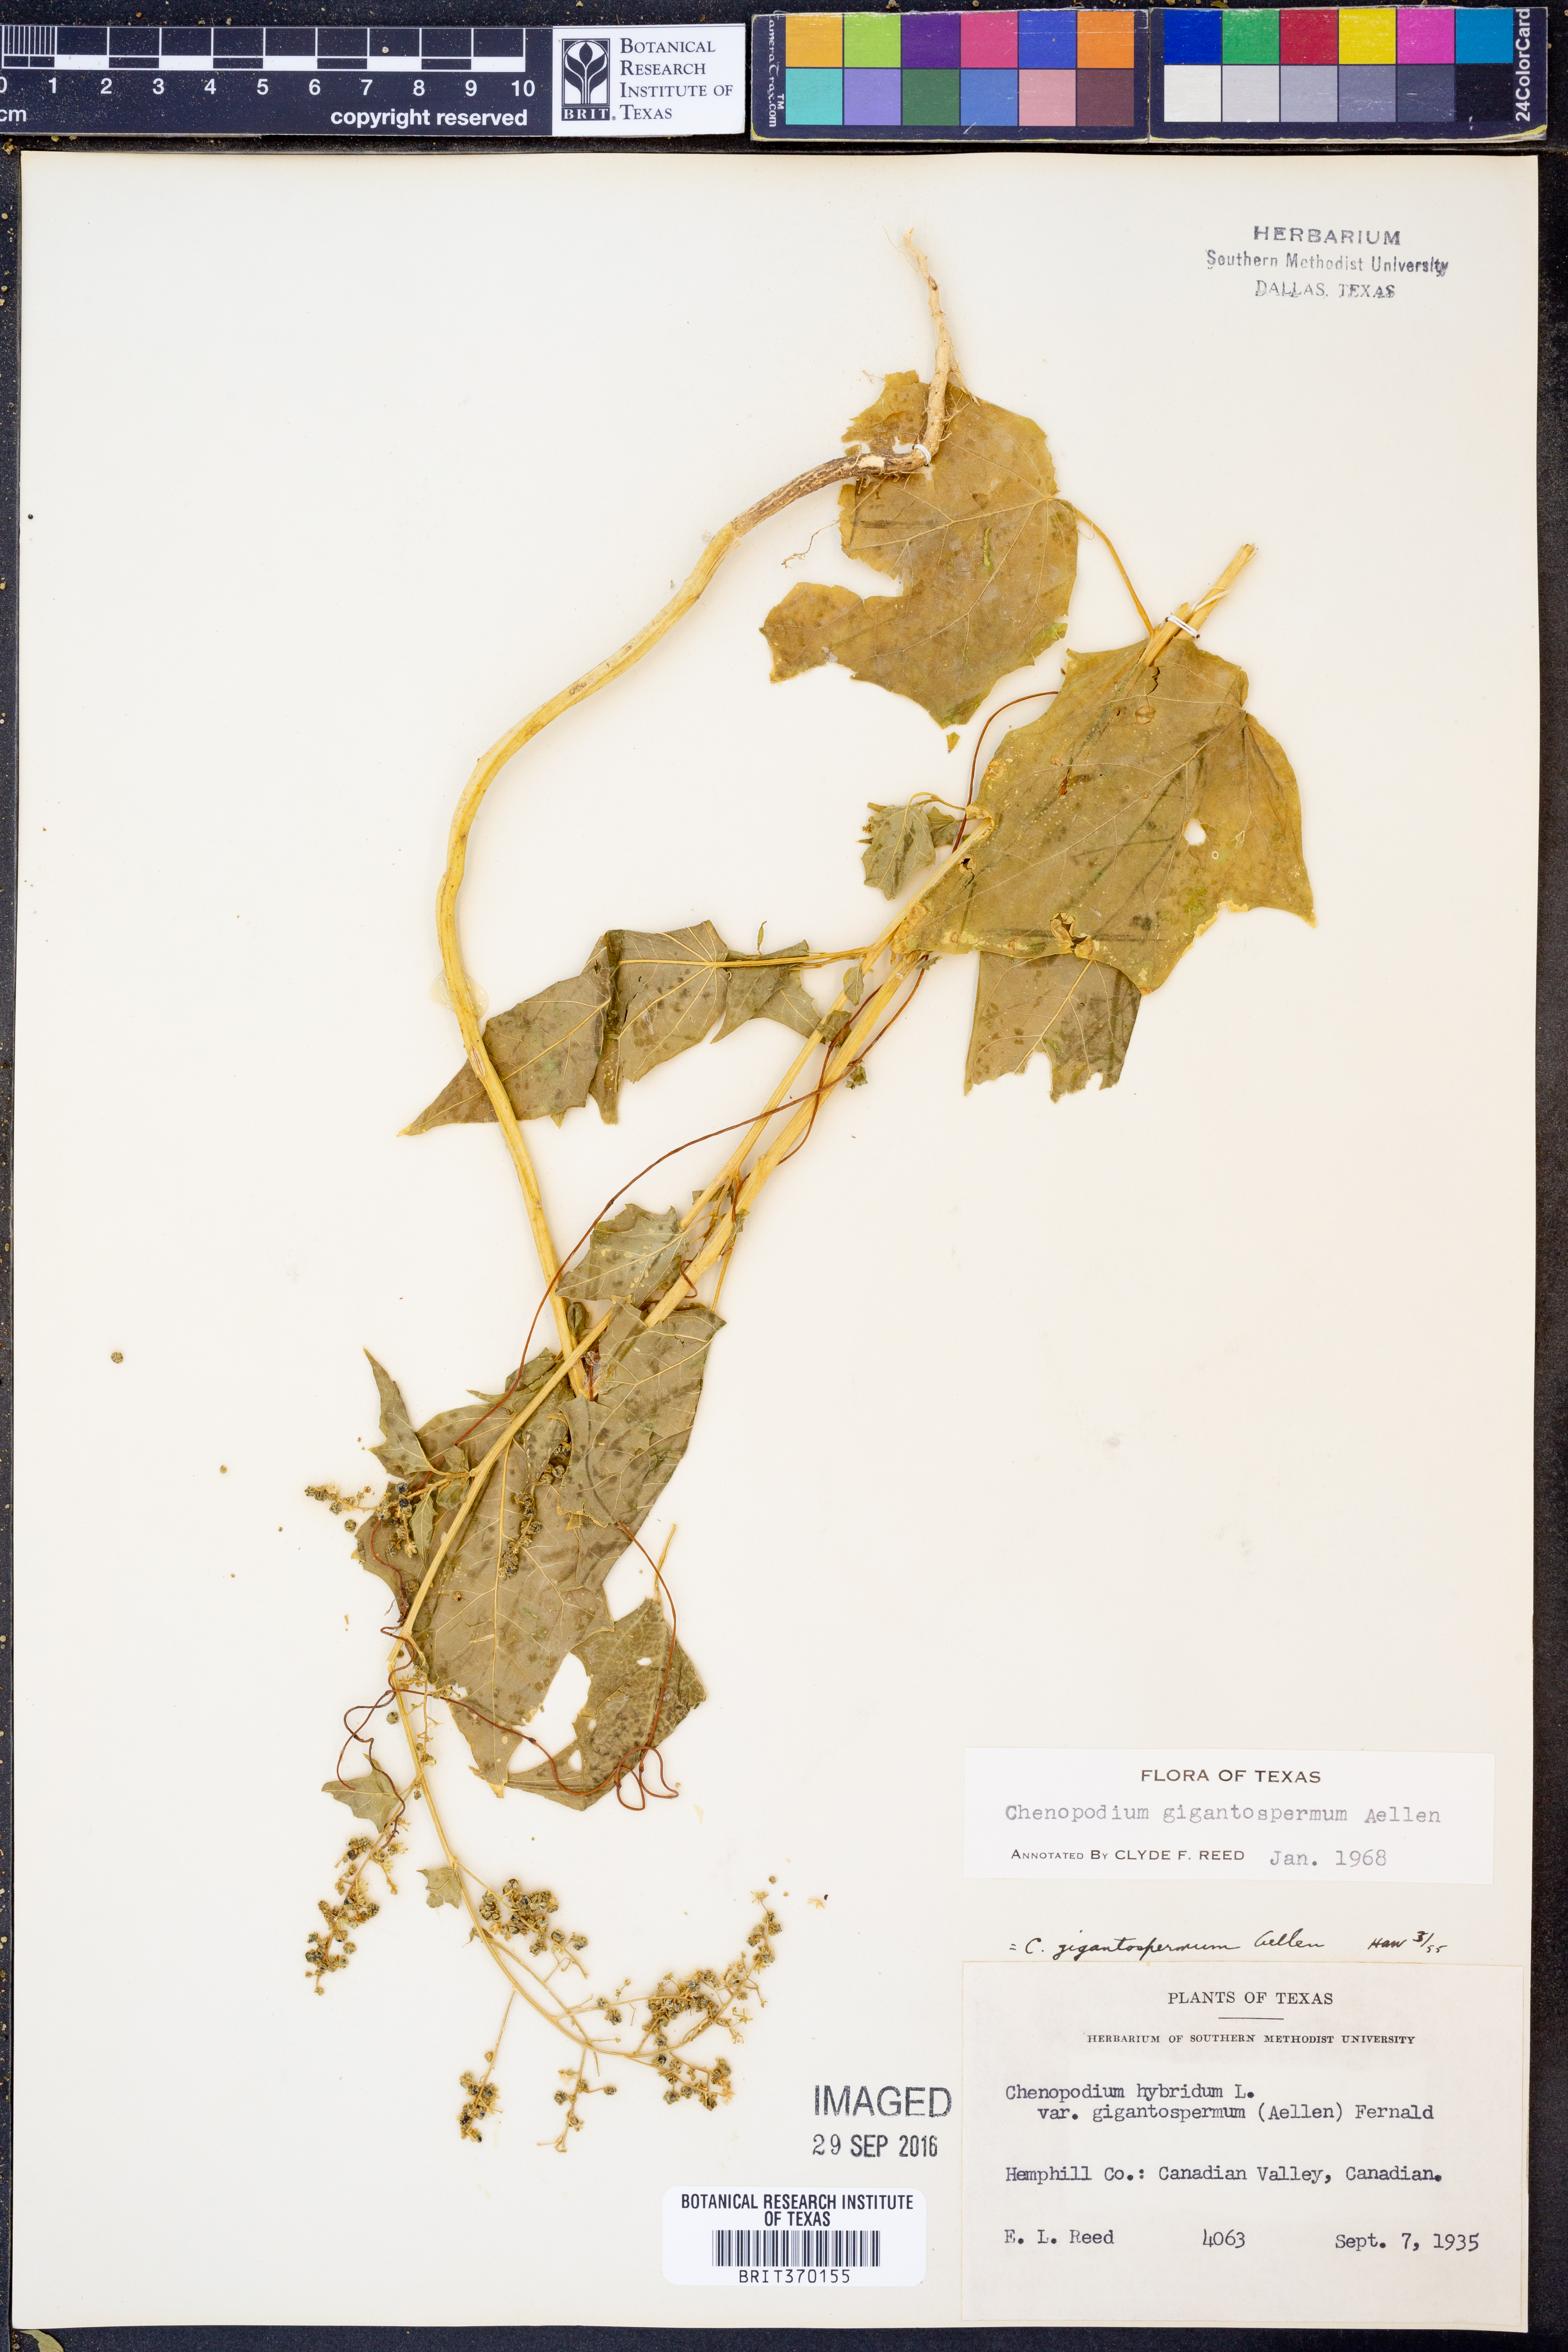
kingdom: Plantae
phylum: Tracheophyta
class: Magnoliopsida
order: Caryophyllales
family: Amaranthaceae
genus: Chenopodiastrum
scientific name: Chenopodiastrum simplex
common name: Large-seed goosefoot
